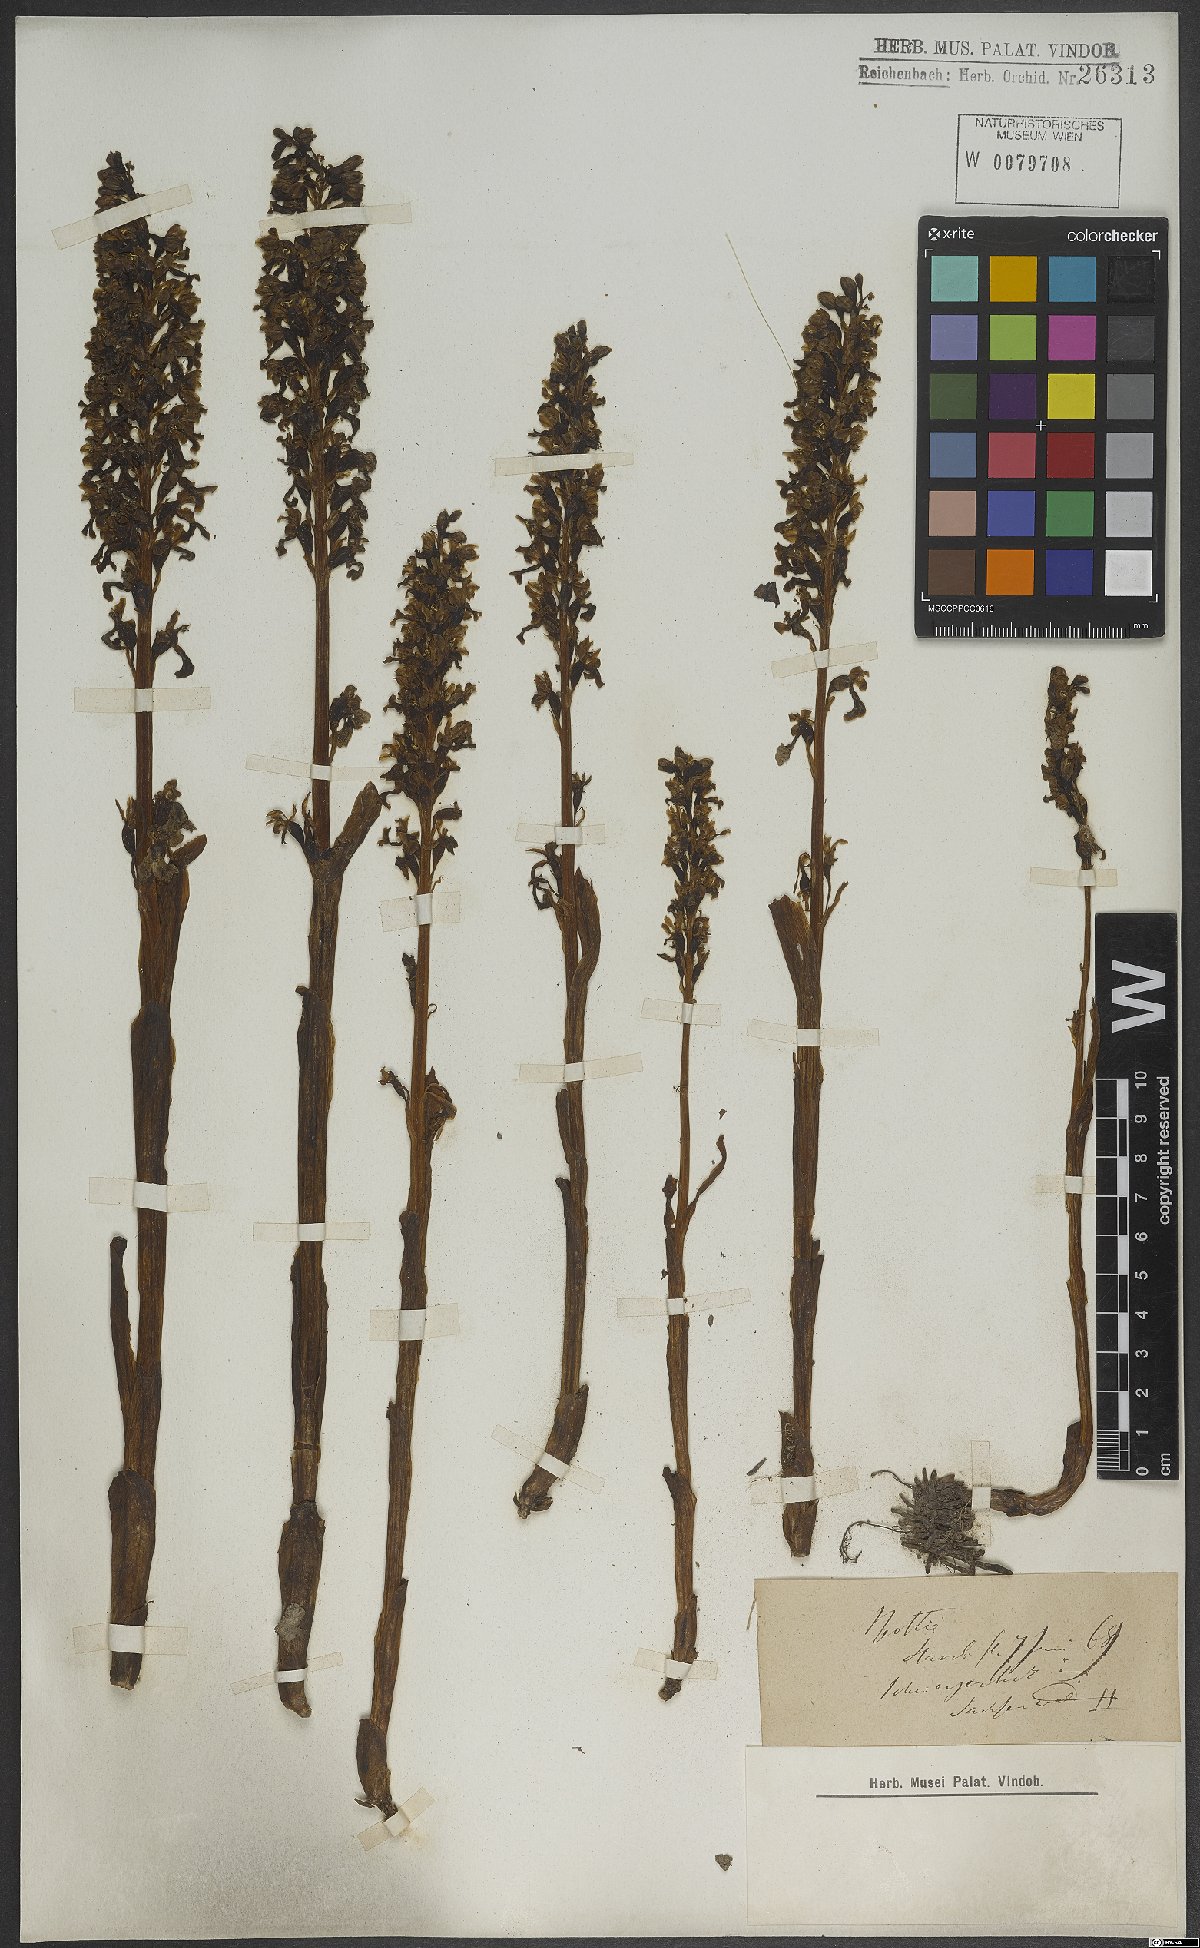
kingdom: Plantae
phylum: Tracheophyta
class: Liliopsida
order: Asparagales
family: Orchidaceae
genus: Neottia
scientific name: Neottia nidus-avis
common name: Bird's-nest orchid
